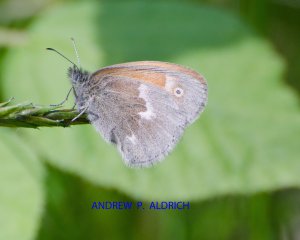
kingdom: Animalia
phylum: Arthropoda
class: Insecta
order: Lepidoptera
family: Nymphalidae
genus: Coenonympha
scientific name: Coenonympha tullia
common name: Large Heath
